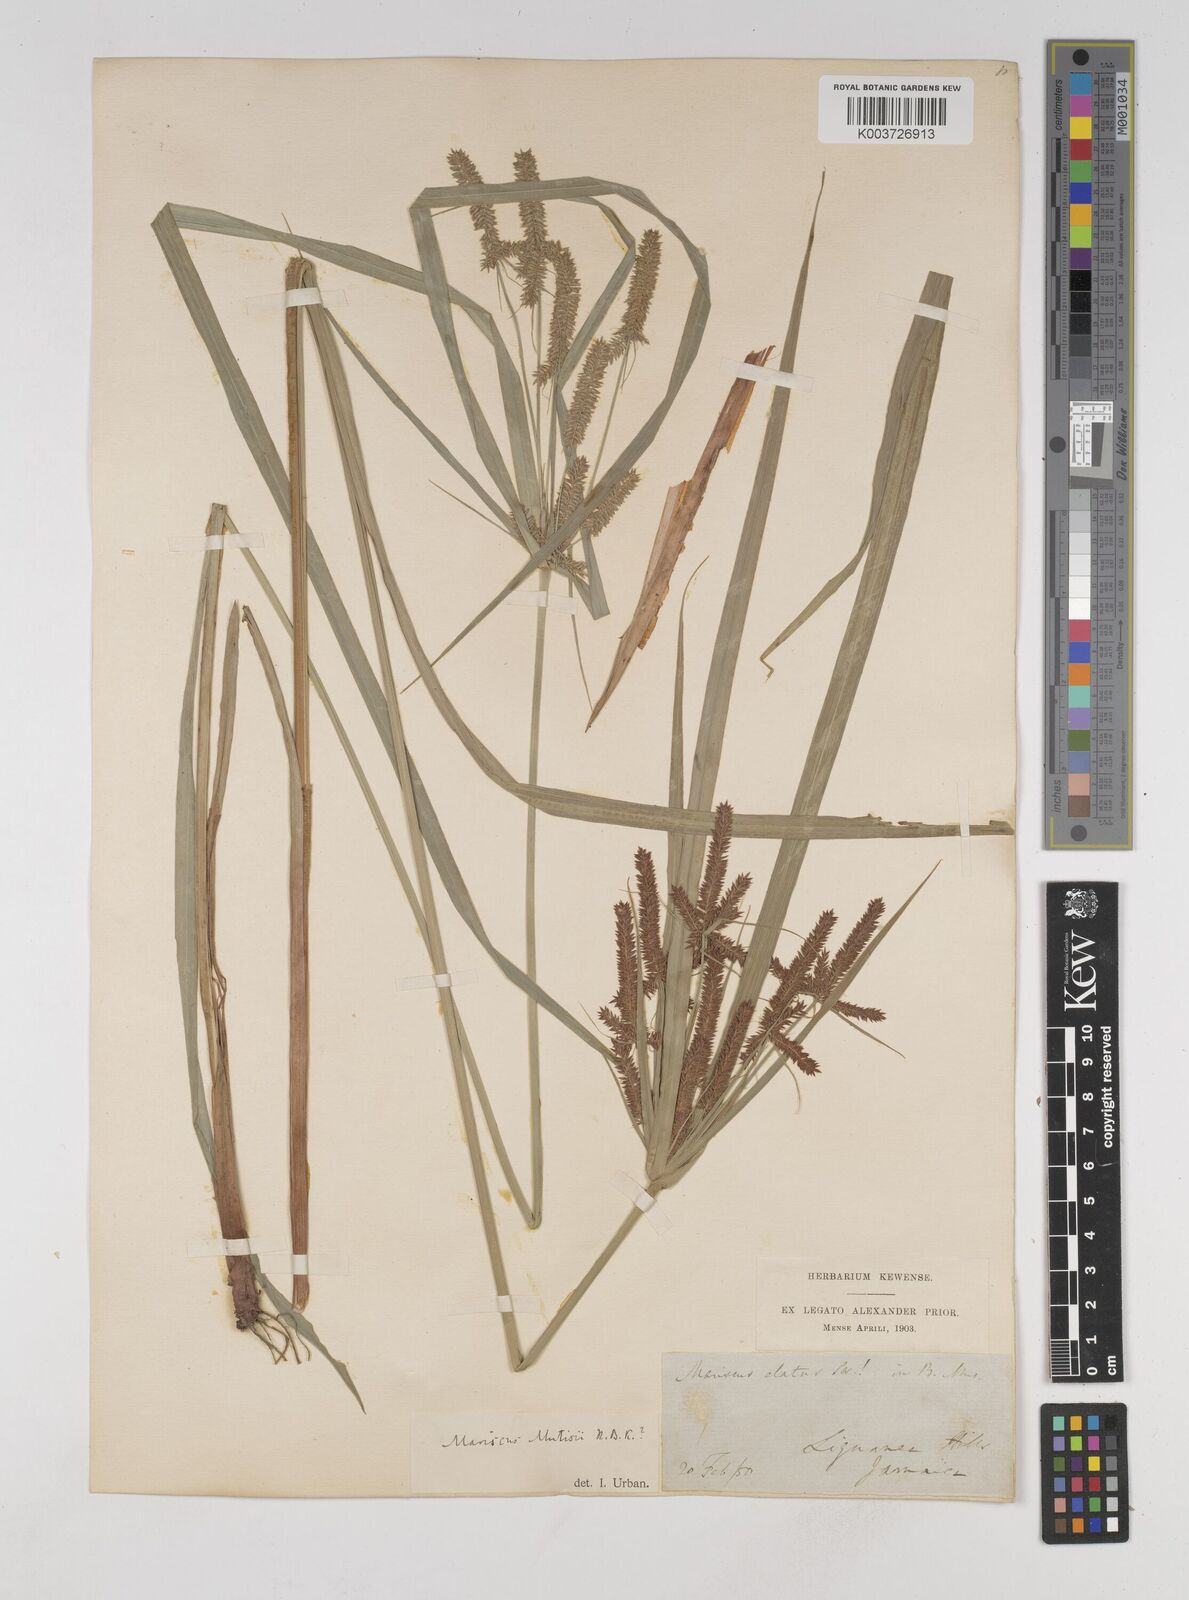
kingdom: Plantae
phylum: Tracheophyta
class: Liliopsida
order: Poales
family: Cyperaceae
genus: Cyperus
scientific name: Cyperus
